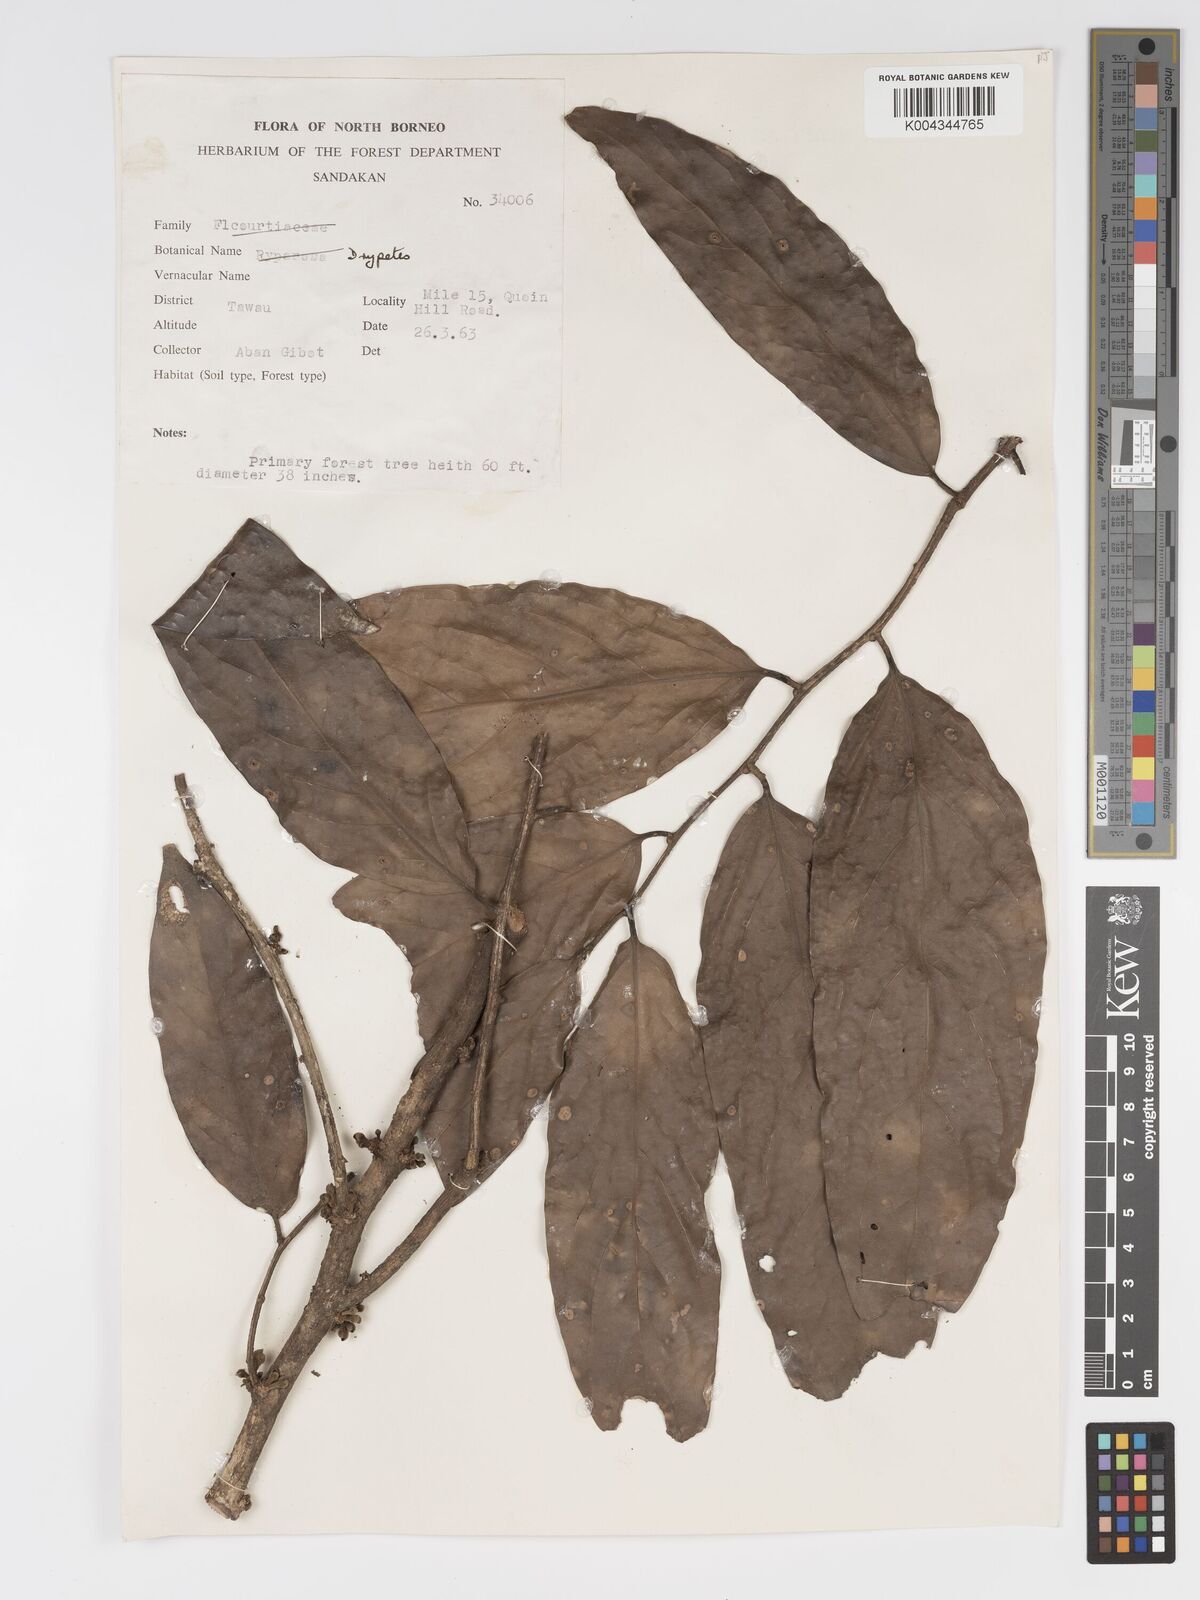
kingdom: Plantae
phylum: Tracheophyta
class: Magnoliopsida
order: Malpighiales
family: Putranjivaceae
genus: Drypetes
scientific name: Drypetes caesia
